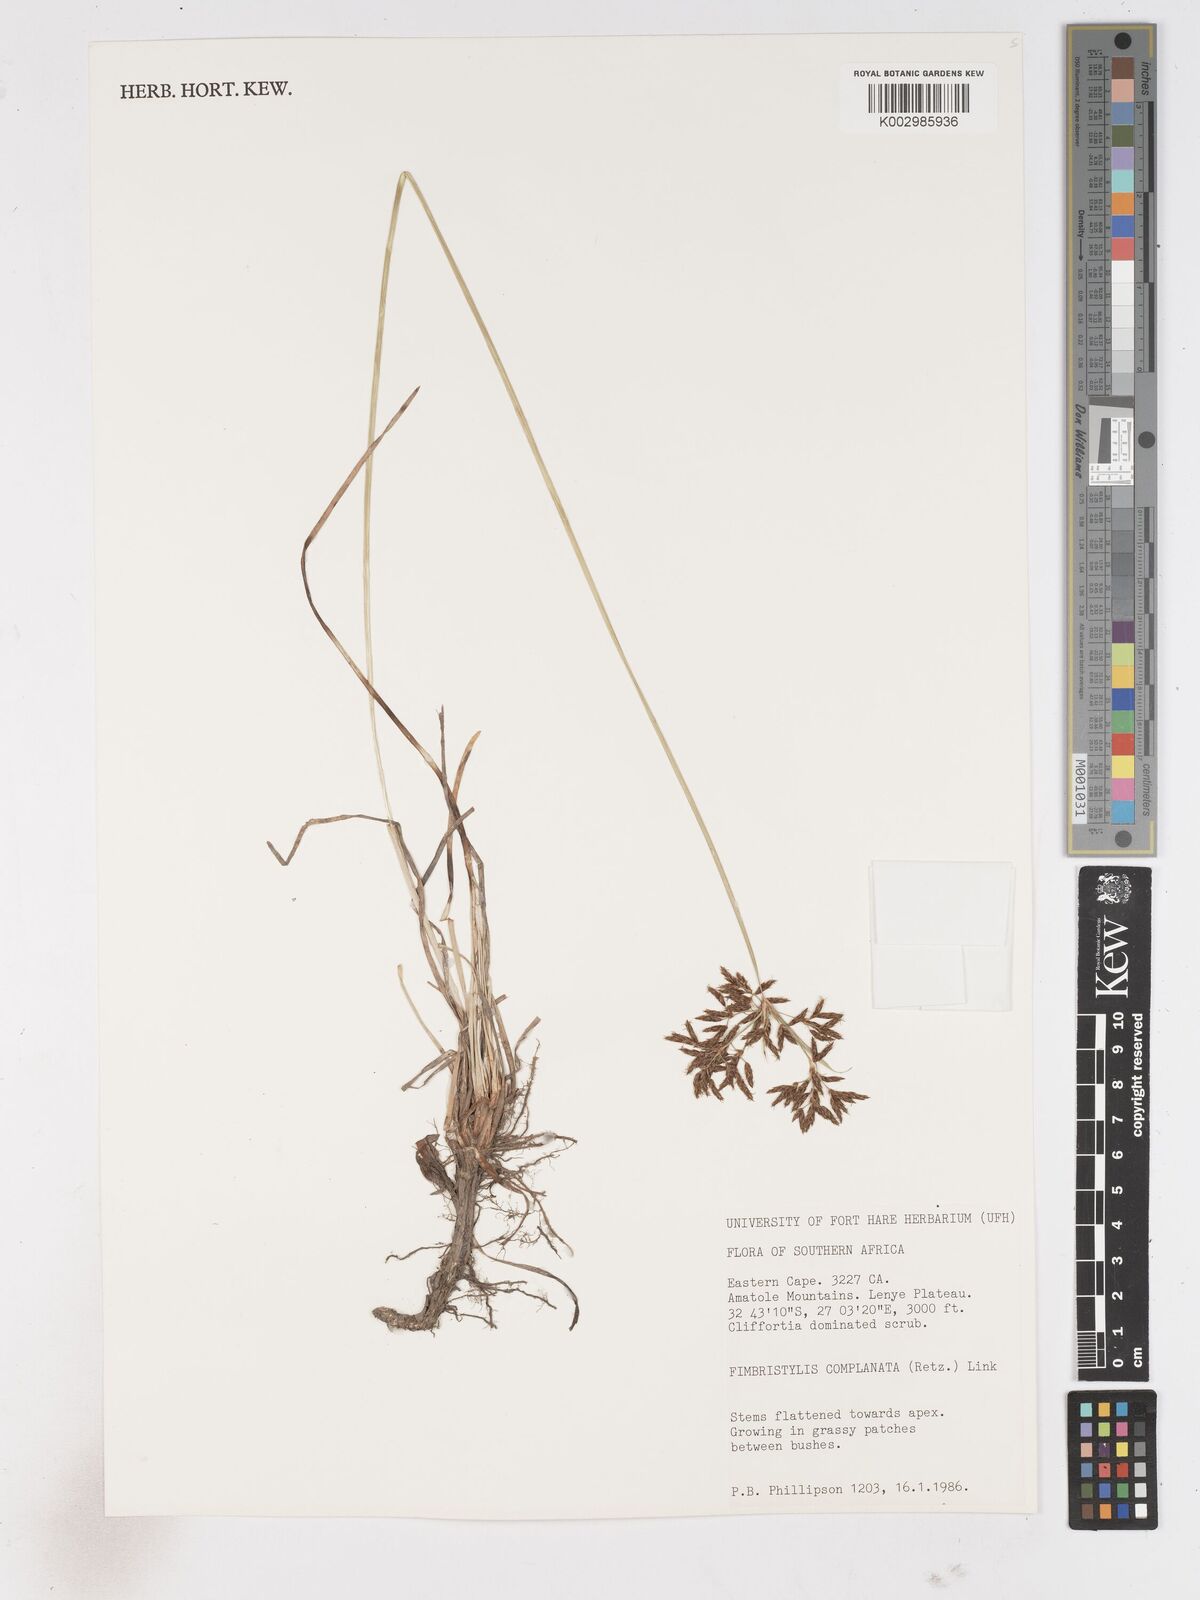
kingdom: Plantae
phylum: Tracheophyta
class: Liliopsida
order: Poales
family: Cyperaceae
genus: Fimbristylis
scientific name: Fimbristylis complanata
